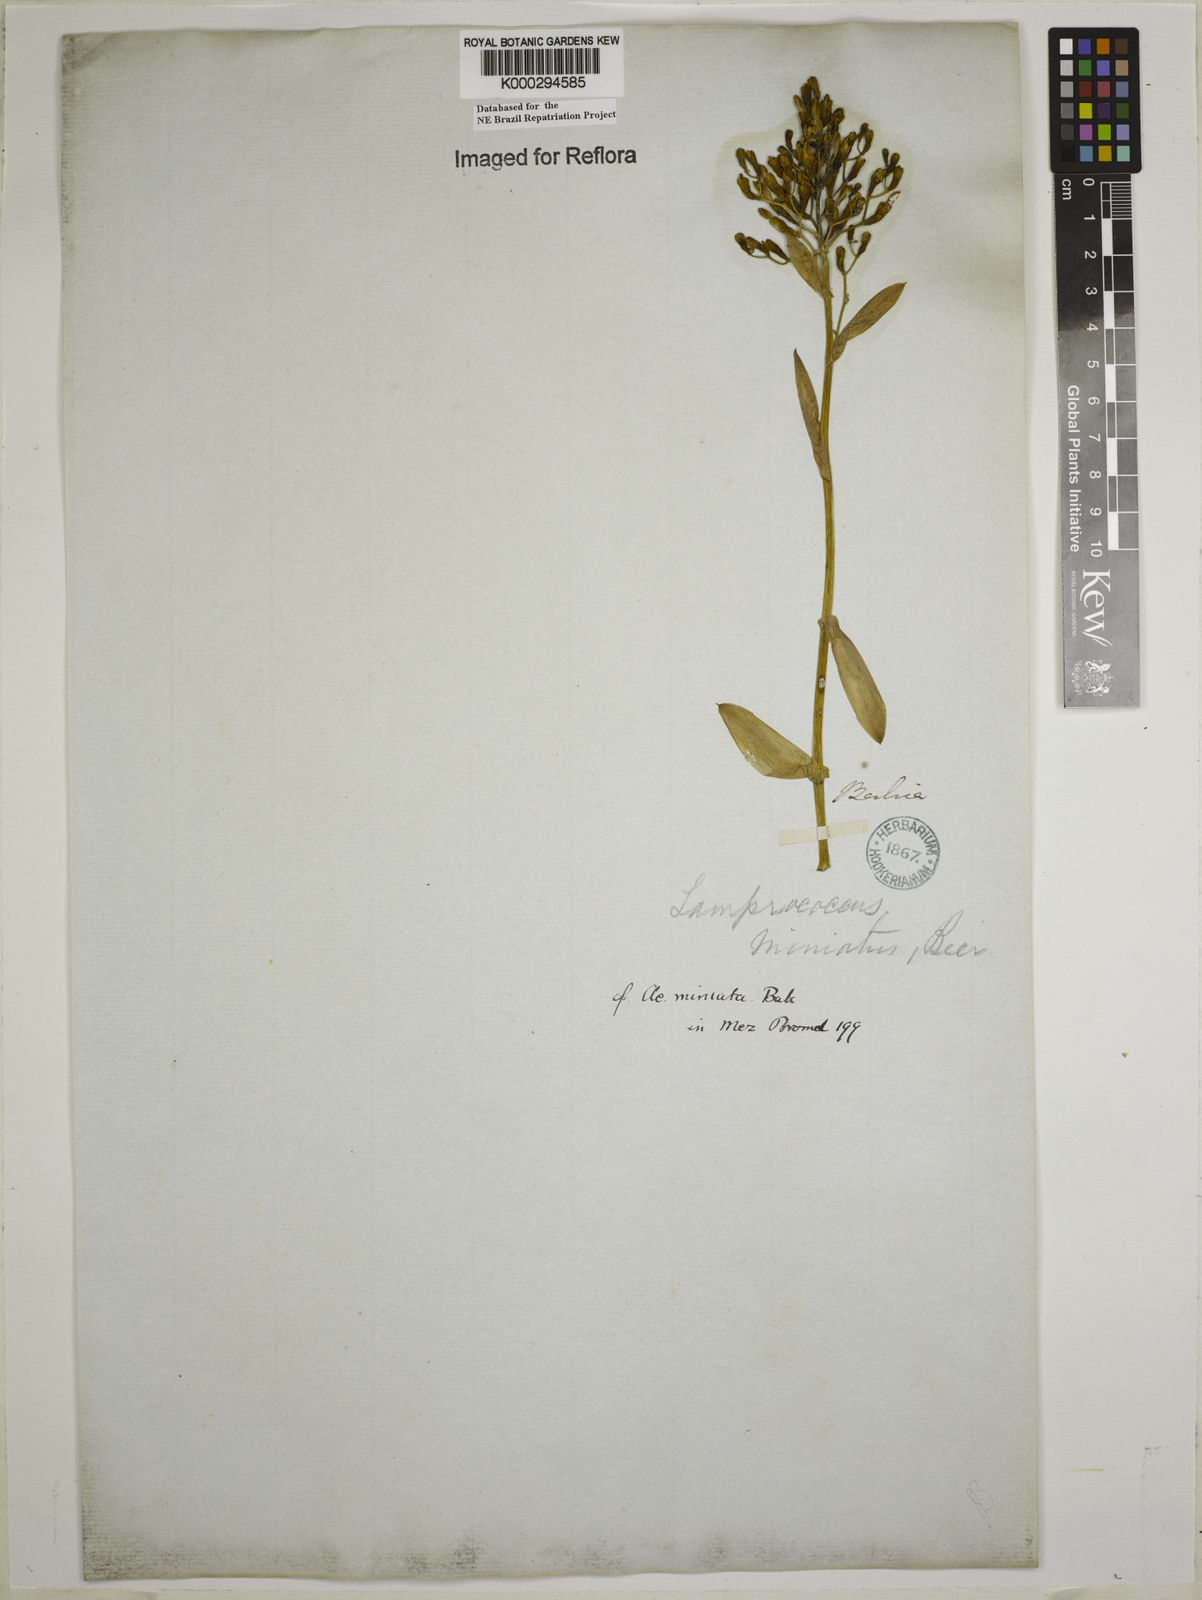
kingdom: Plantae
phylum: Tracheophyta
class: Liliopsida
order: Poales
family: Bromeliaceae
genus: Aechmea
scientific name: Aechmea miniata
